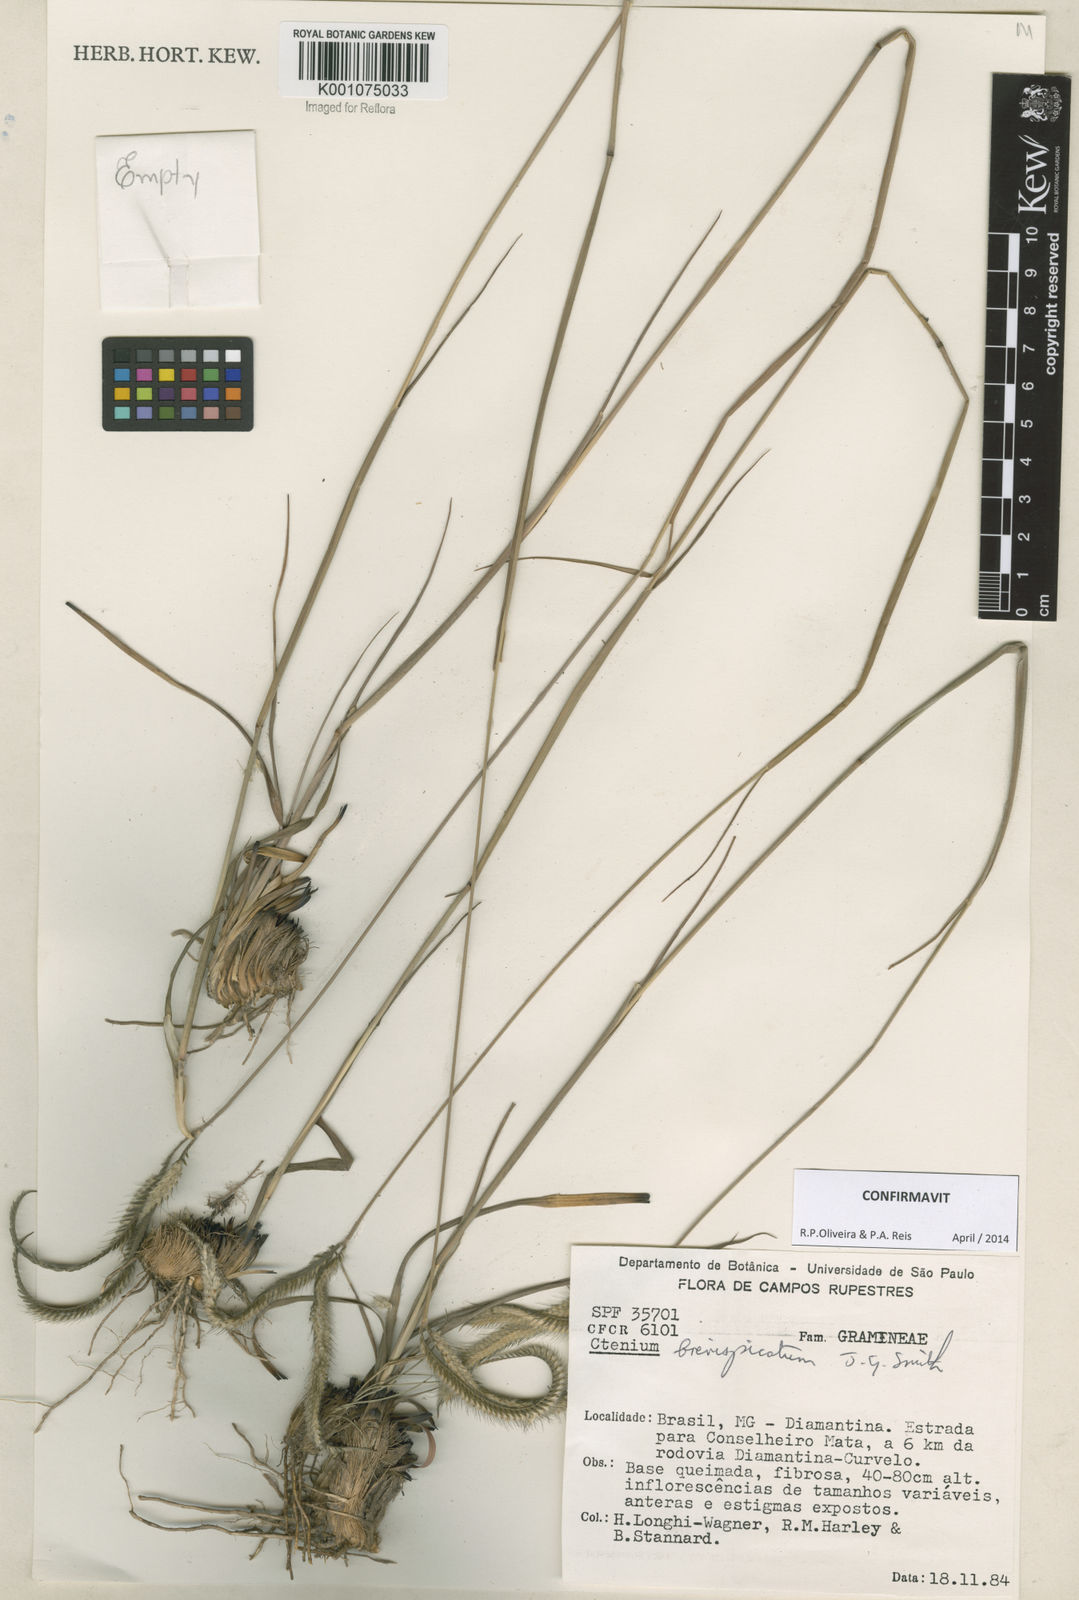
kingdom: Plantae
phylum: Tracheophyta
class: Liliopsida
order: Poales
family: Poaceae
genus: Ctenium
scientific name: Ctenium brevispicatum
